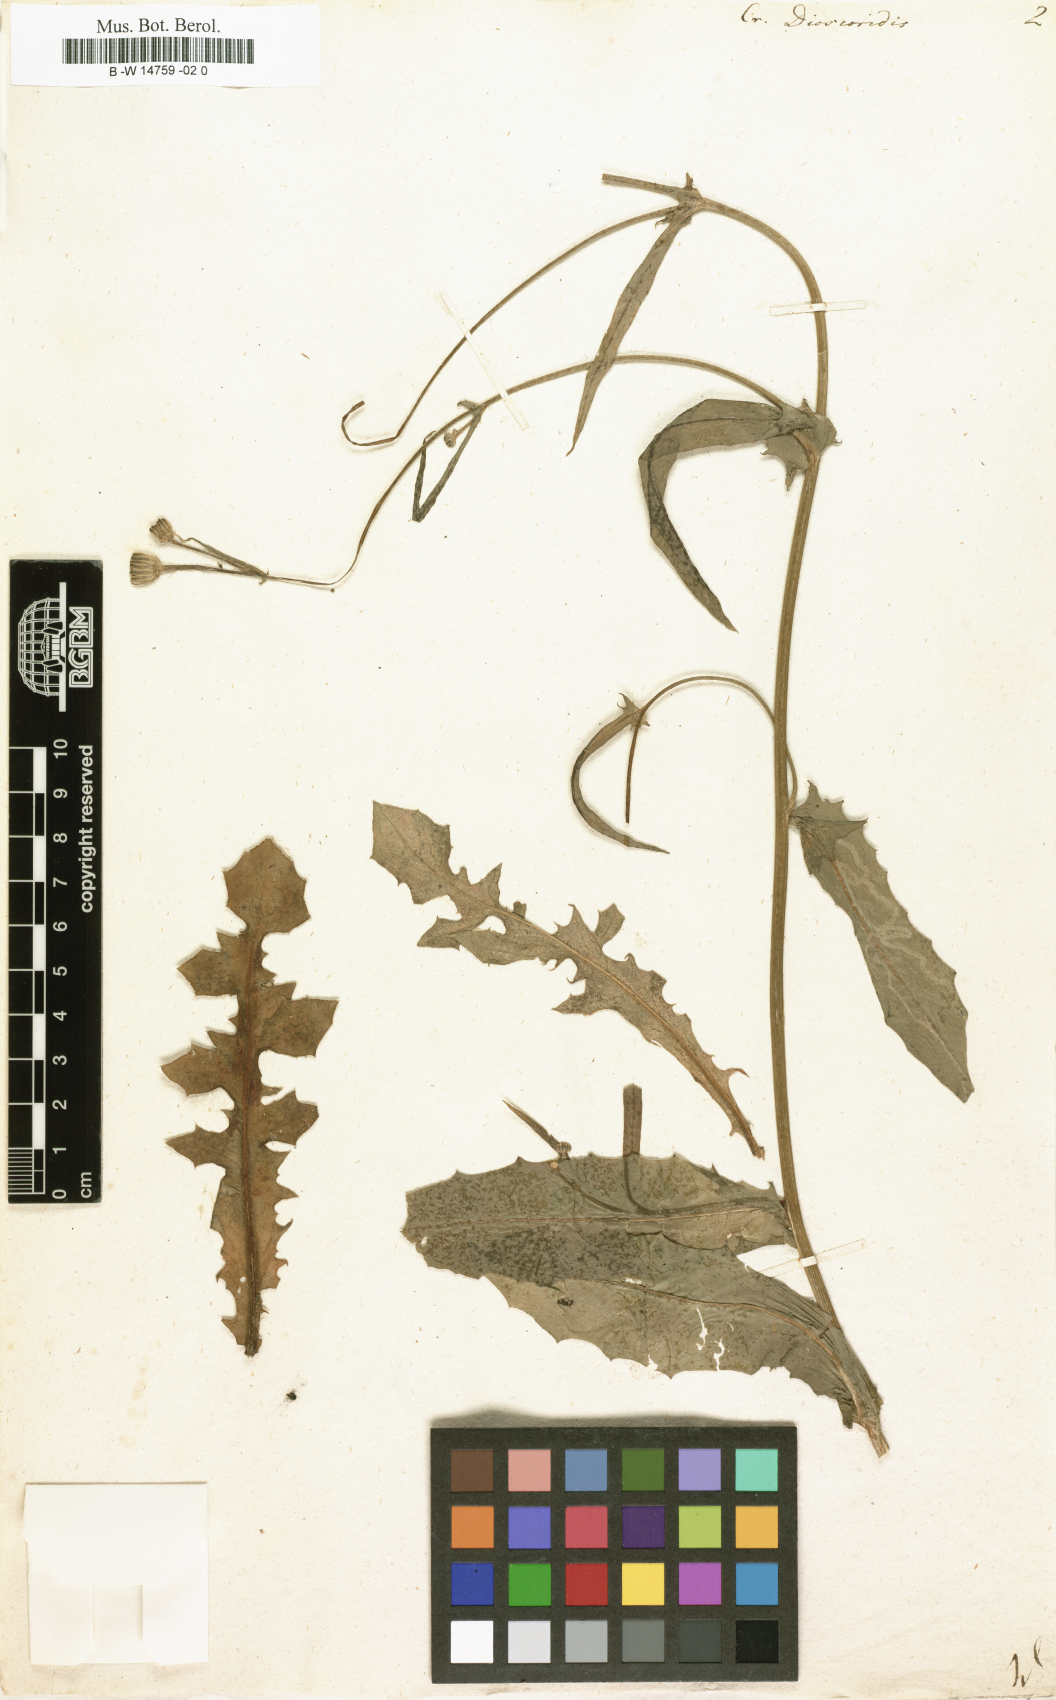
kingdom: Plantae
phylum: Tracheophyta
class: Magnoliopsida
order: Asterales
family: Asteraceae
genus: Crepis
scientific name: Crepis dioscoridis
